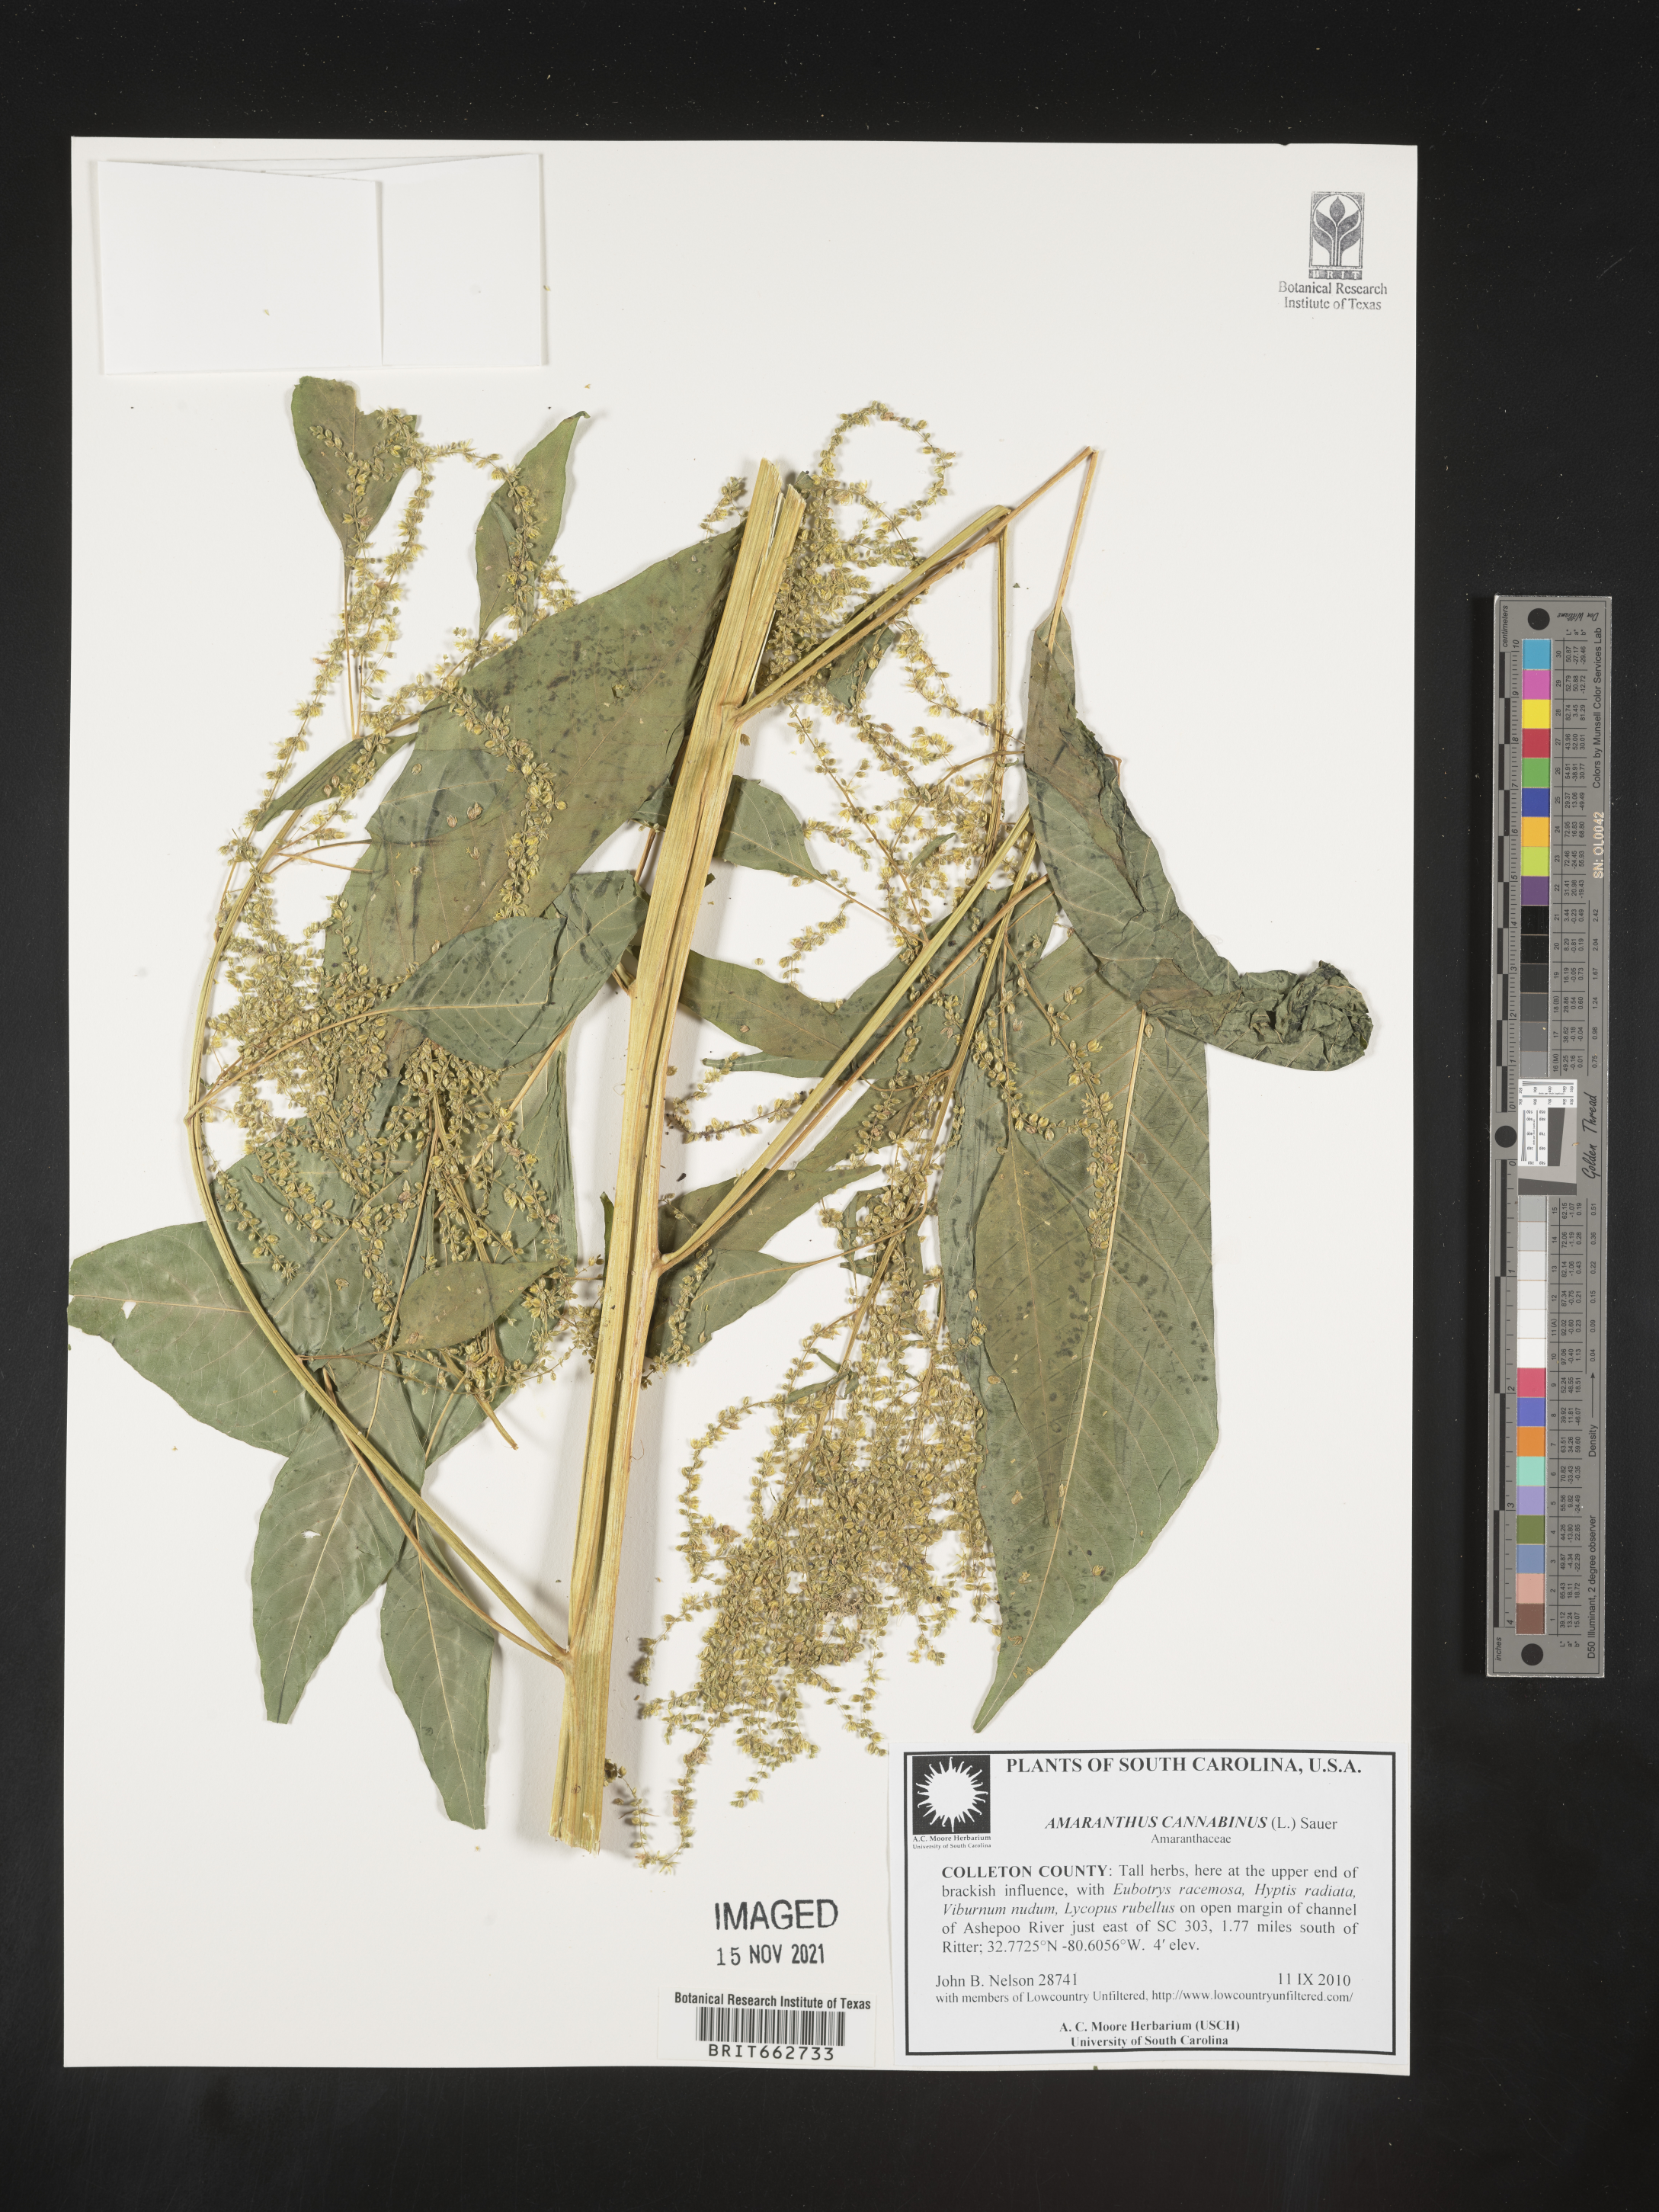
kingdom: Plantae
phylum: Tracheophyta
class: Magnoliopsida
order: Caryophyllales
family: Amaranthaceae
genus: Amaranthus
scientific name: Amaranthus
